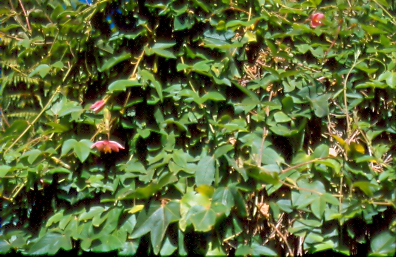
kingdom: Plantae
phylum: Tracheophyta
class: Magnoliopsida
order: Malpighiales
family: Passifloraceae
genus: Passiflora
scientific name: Passiflora tripartita
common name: Banana poka
